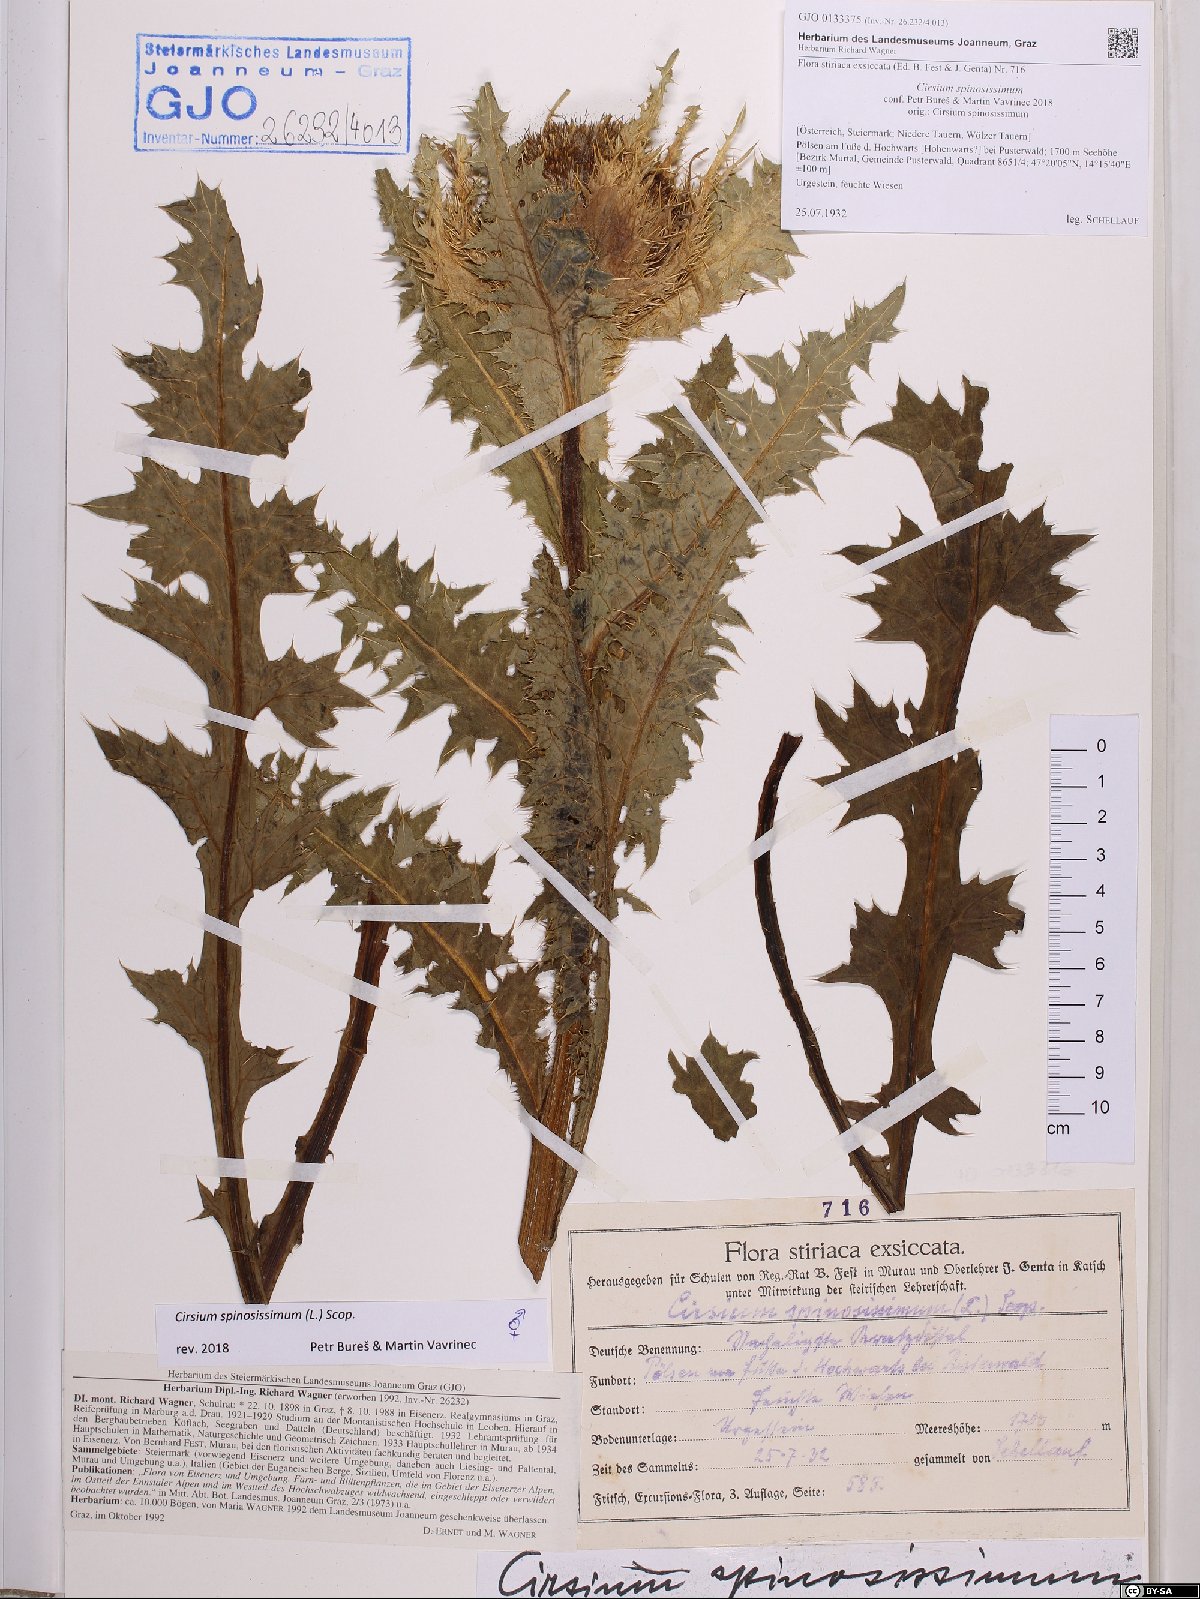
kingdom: Plantae
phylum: Tracheophyta
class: Magnoliopsida
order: Asterales
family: Asteraceae
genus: Cirsium
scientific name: Cirsium spinosissimum
